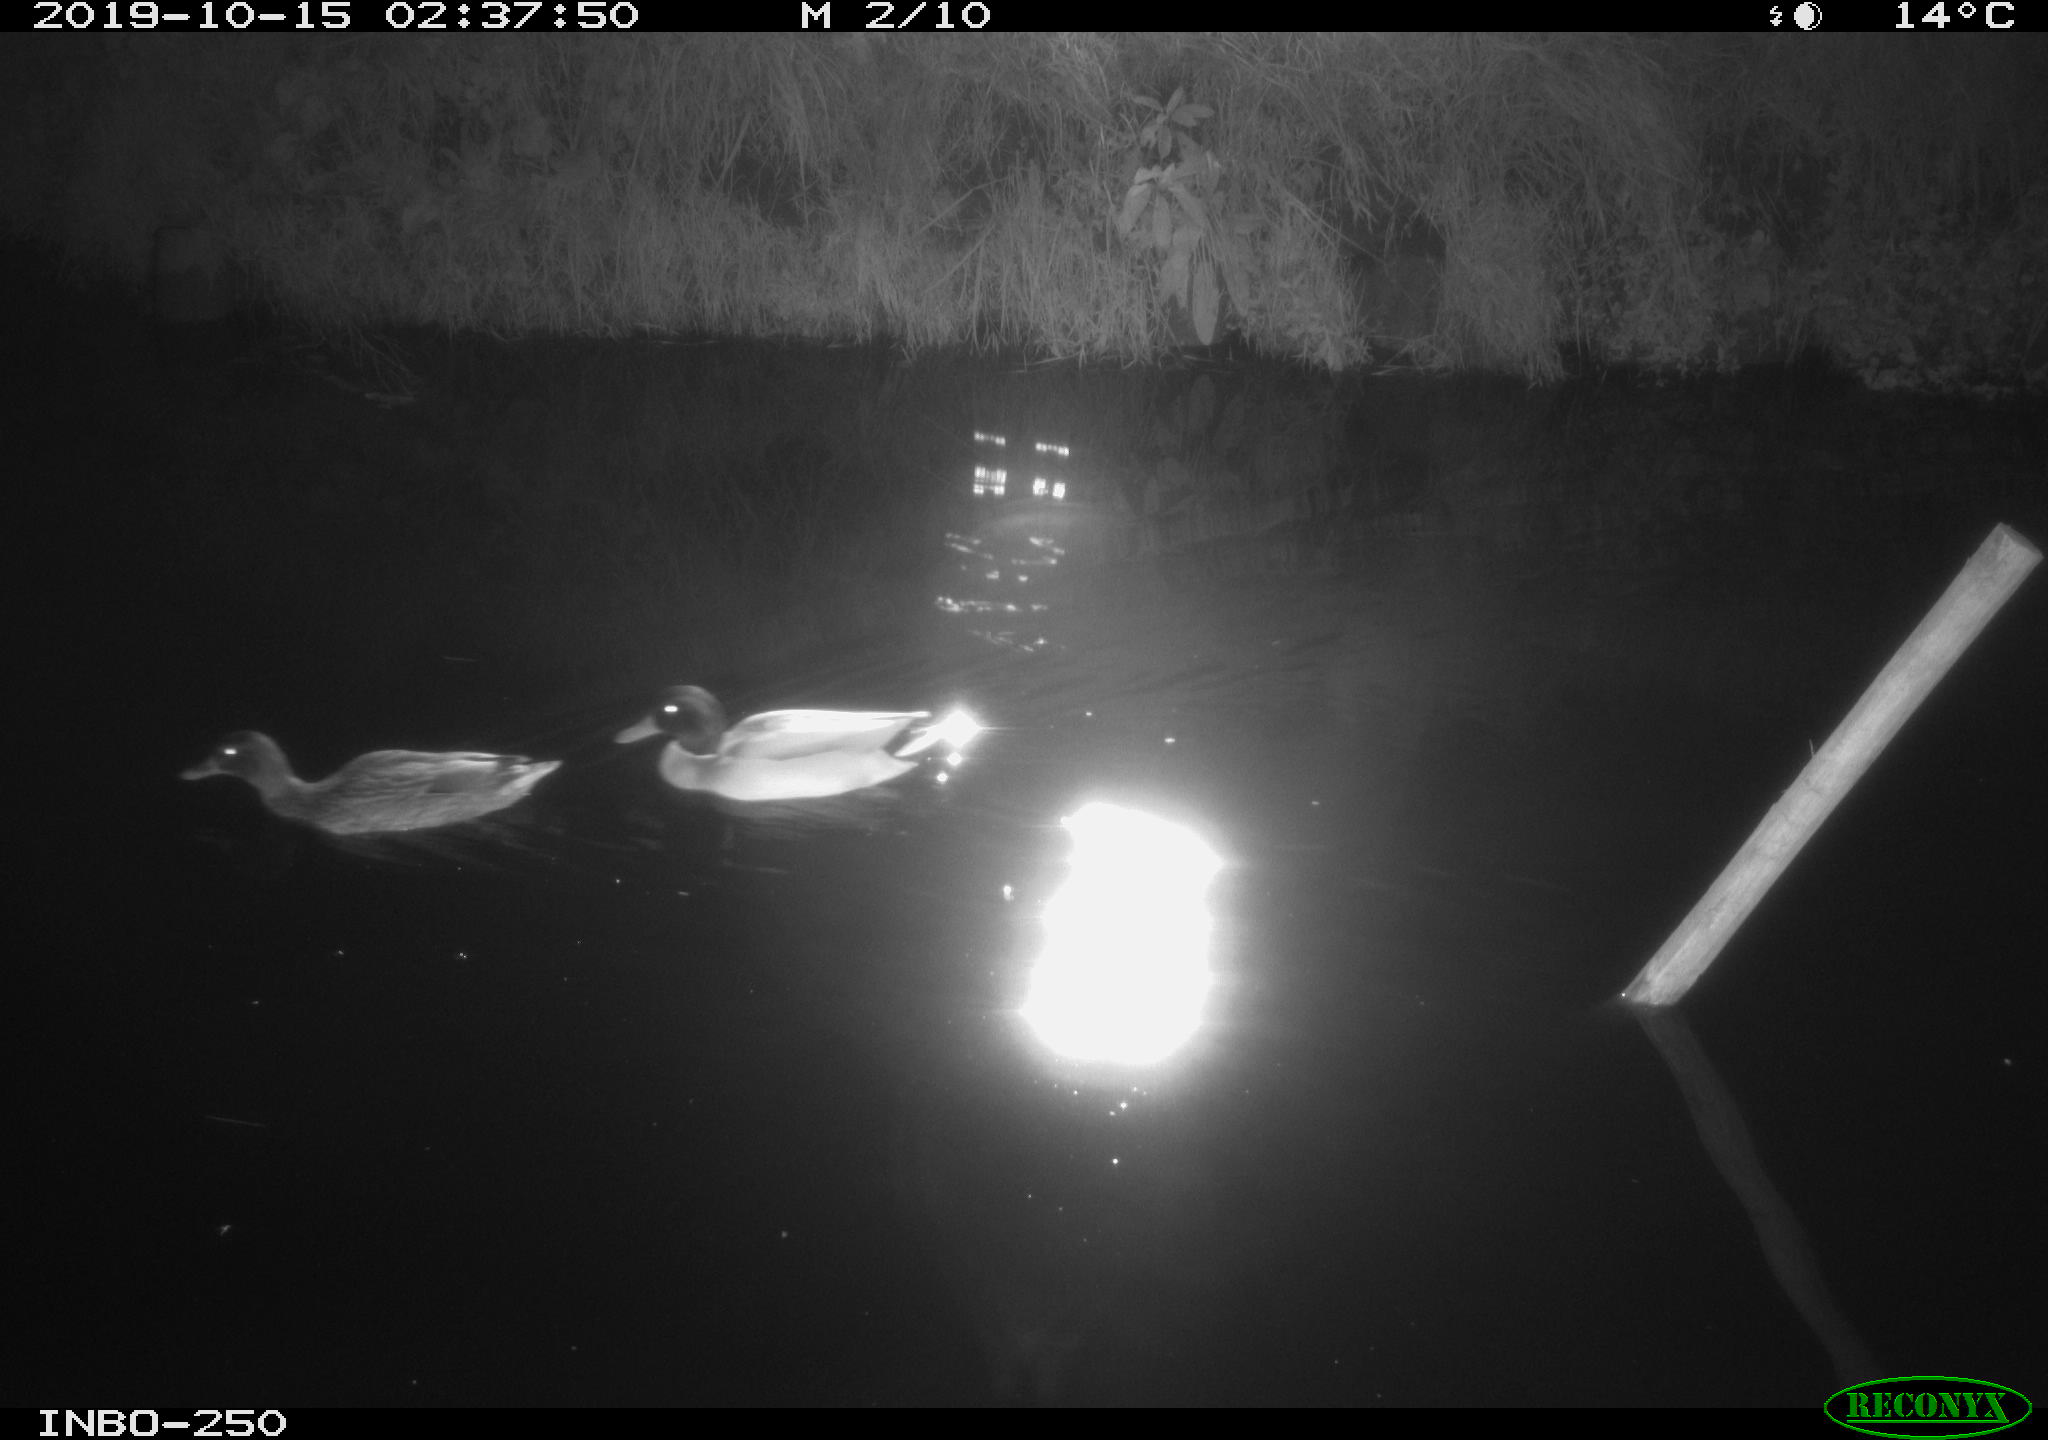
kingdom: Animalia
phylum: Chordata
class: Aves
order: Anseriformes
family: Anatidae
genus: Anas
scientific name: Anas platyrhynchos
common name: Mallard
